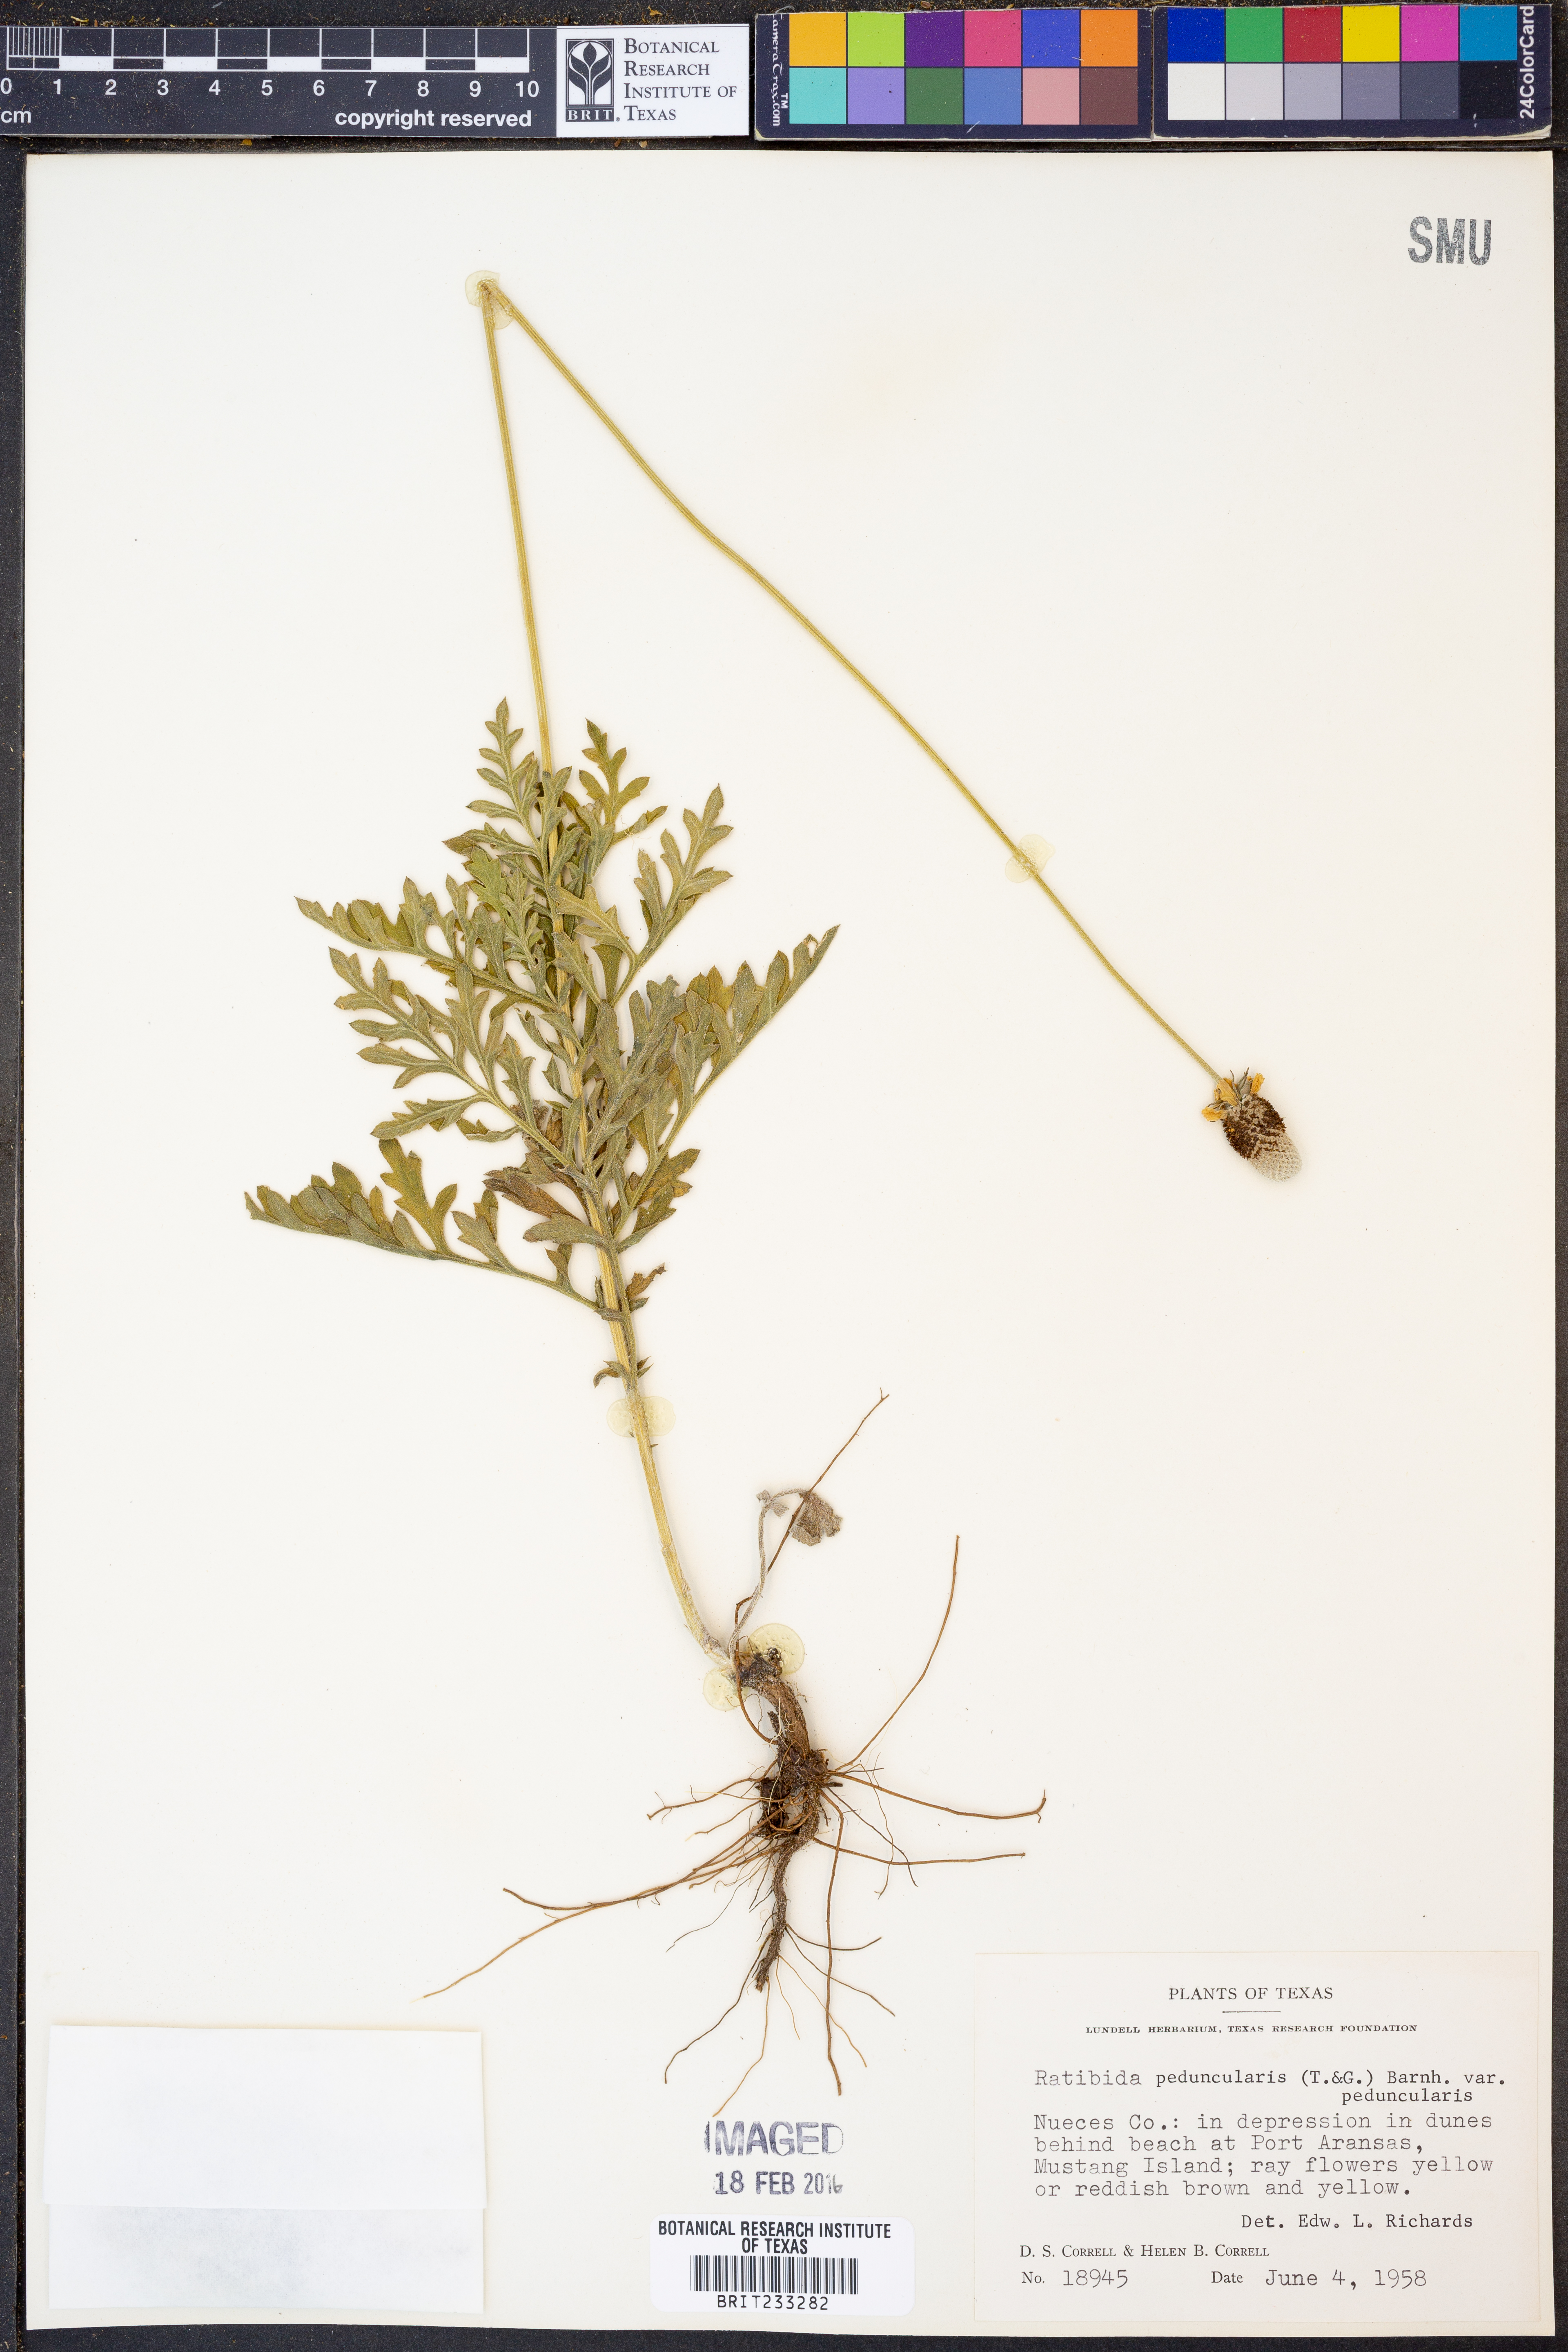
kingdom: Plantae
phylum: Tracheophyta
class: Magnoliopsida
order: Asterales
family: Asteraceae
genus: Ratibida
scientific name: Ratibida peduncularis
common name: Naked prairie-coneflower
